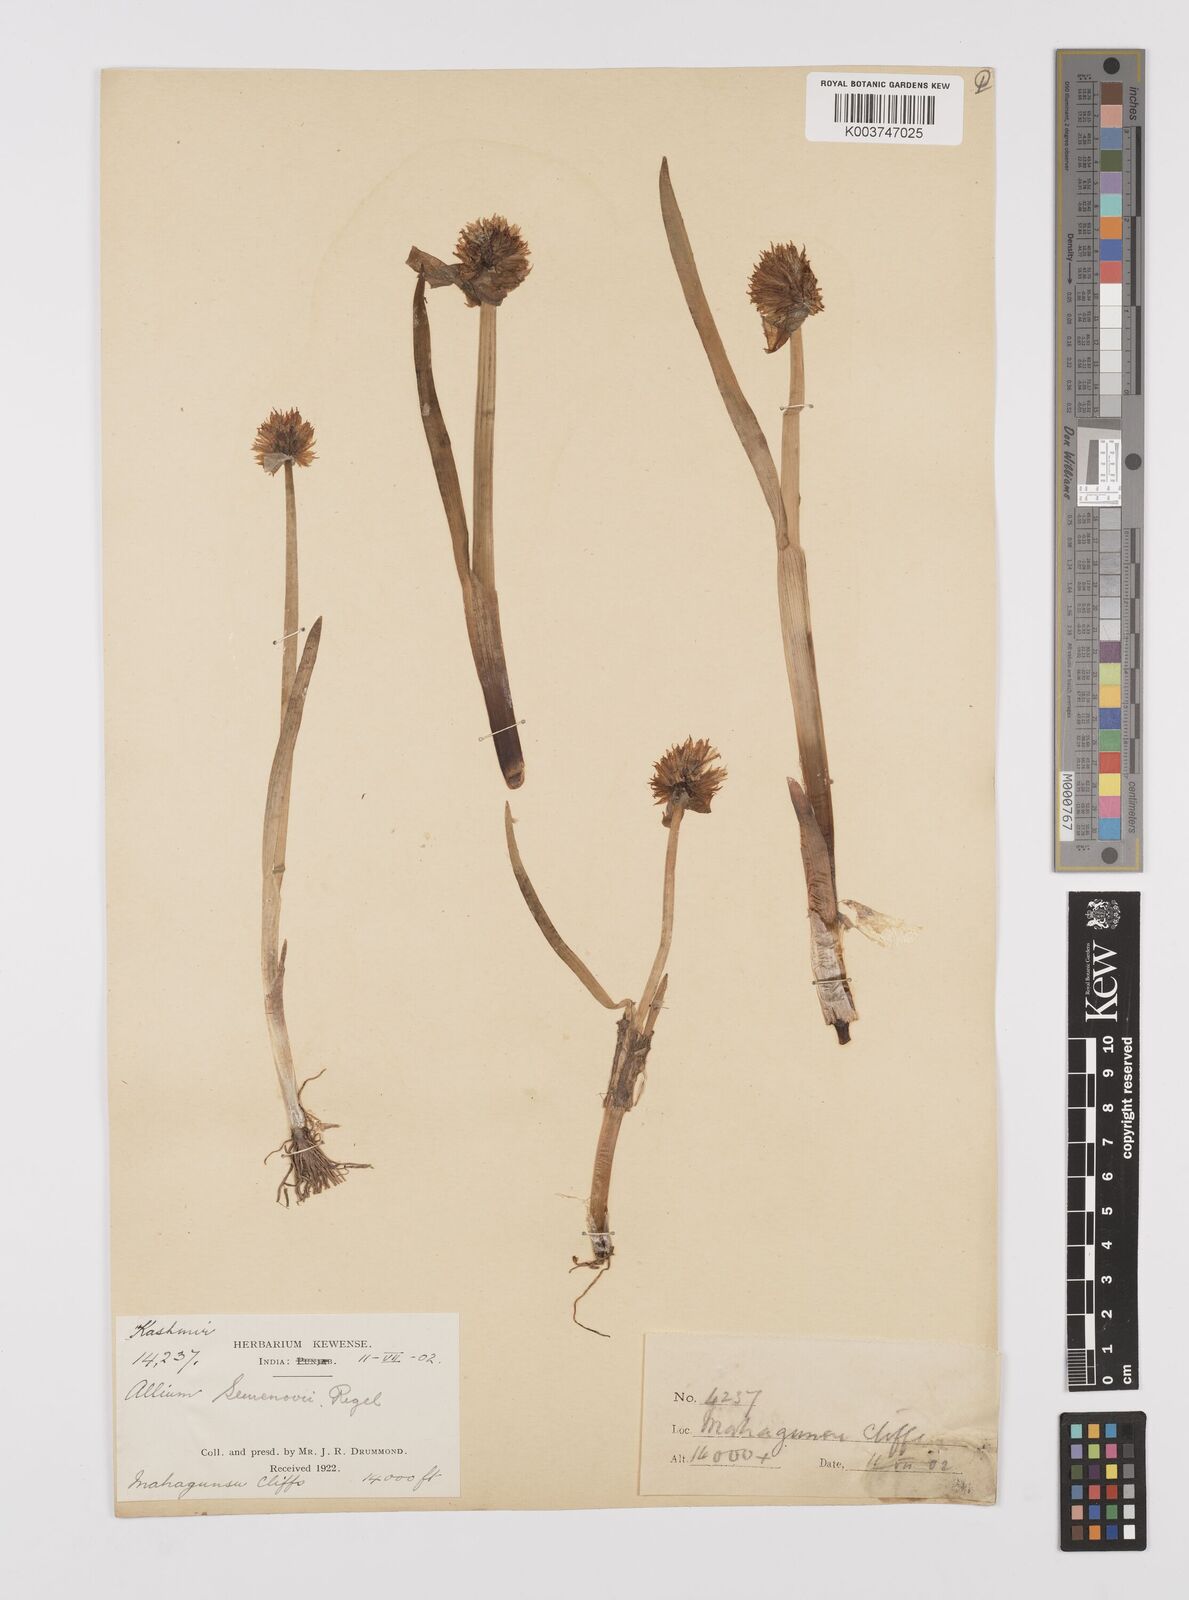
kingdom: Plantae
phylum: Tracheophyta
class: Liliopsida
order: Asparagales
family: Amaryllidaceae
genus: Allium
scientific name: Allium semenovii
